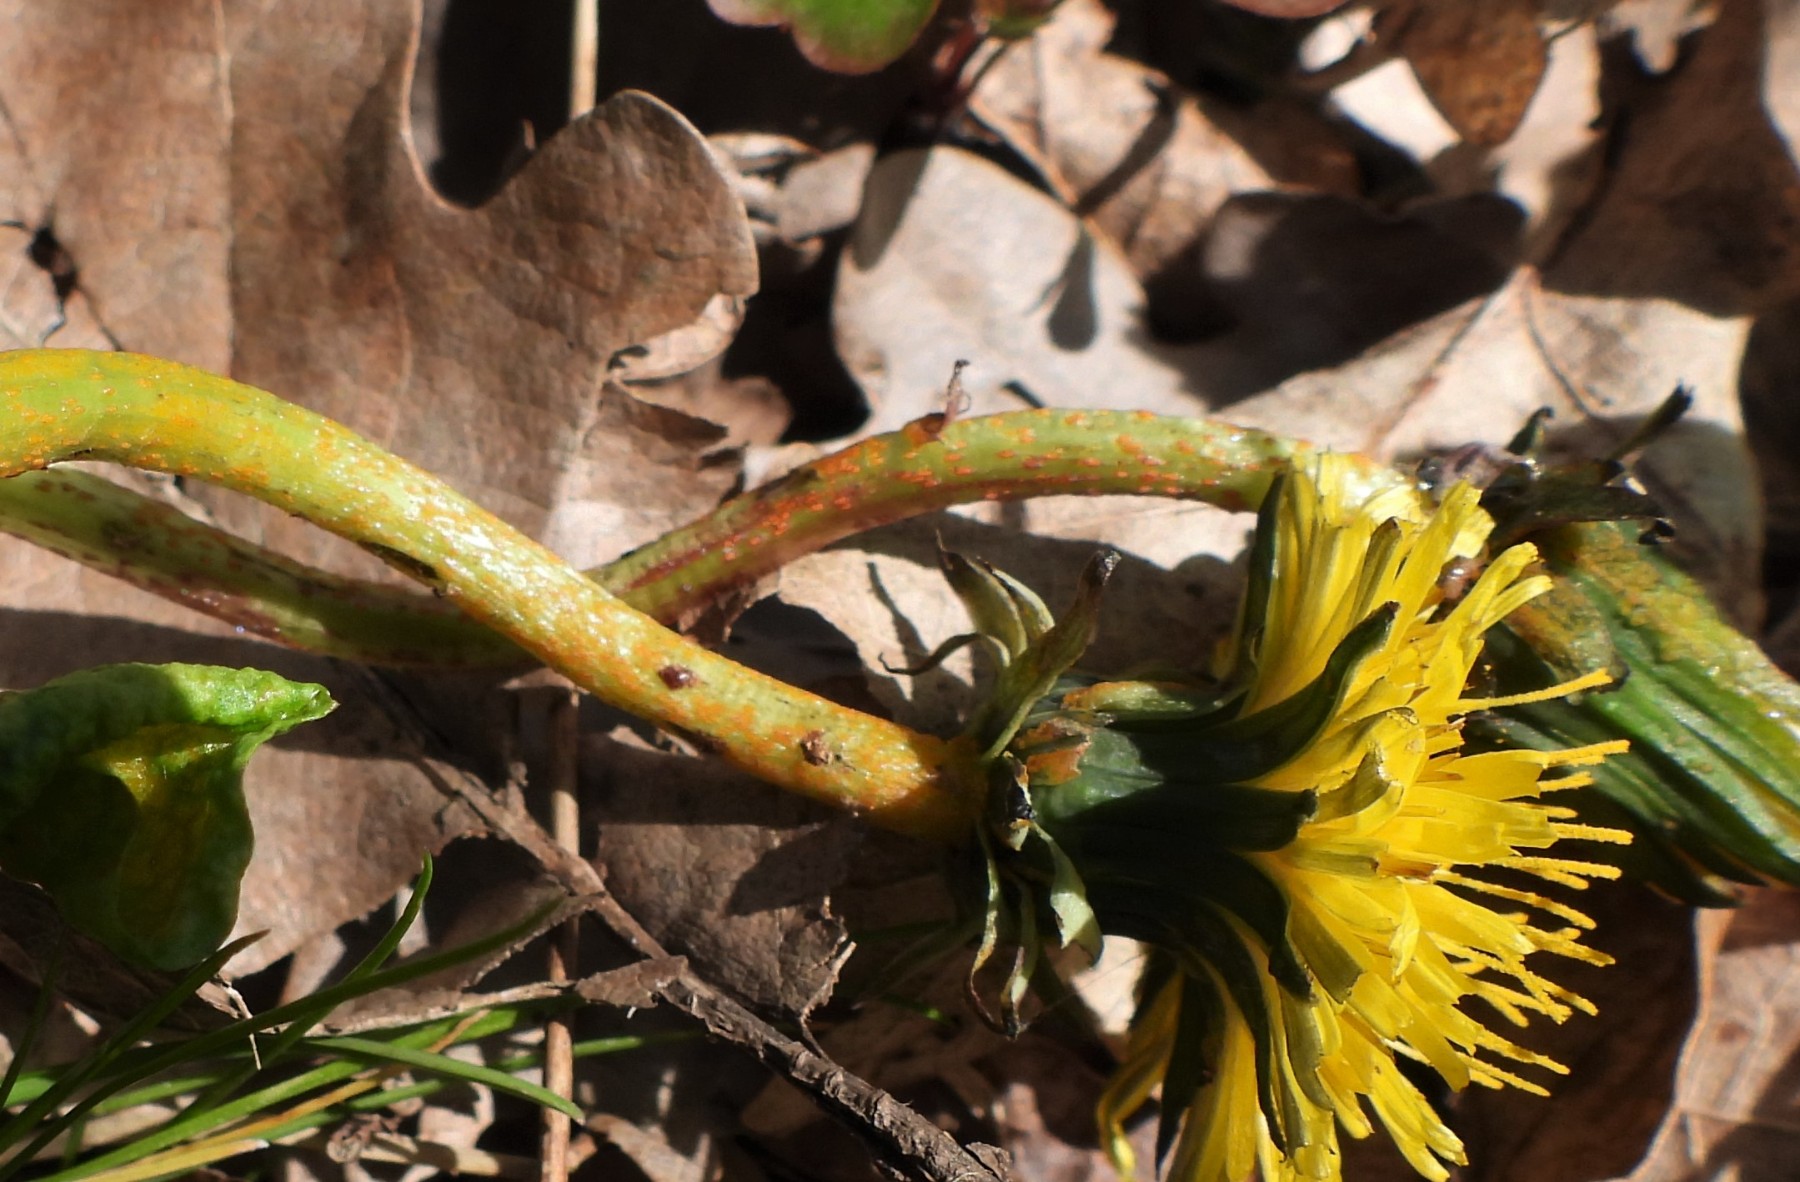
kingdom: Fungi
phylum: Chytridiomycota
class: Chytridiomycetes
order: Chytridiales
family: Synchytriaceae
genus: Synchytrium
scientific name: Synchytrium taraxaci
